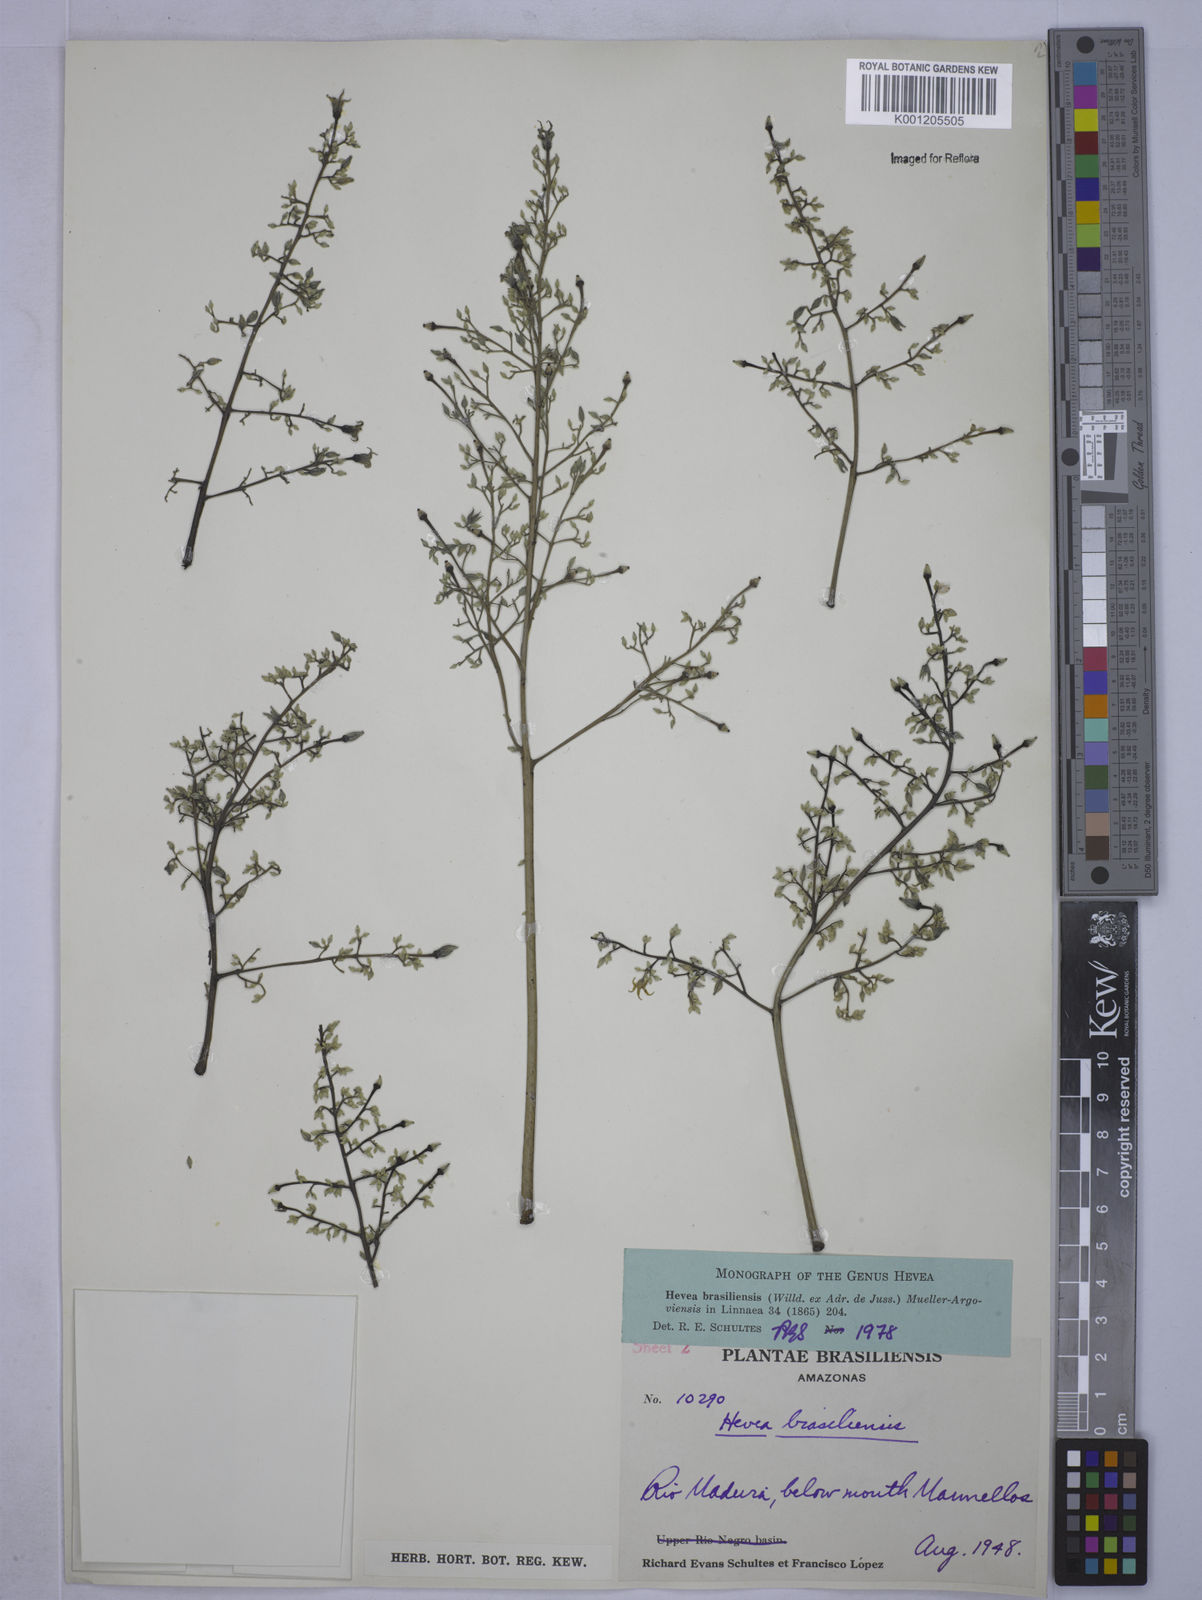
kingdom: Plantae
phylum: Tracheophyta
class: Magnoliopsida
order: Malpighiales
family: Euphorbiaceae
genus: Hevea
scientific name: Hevea
